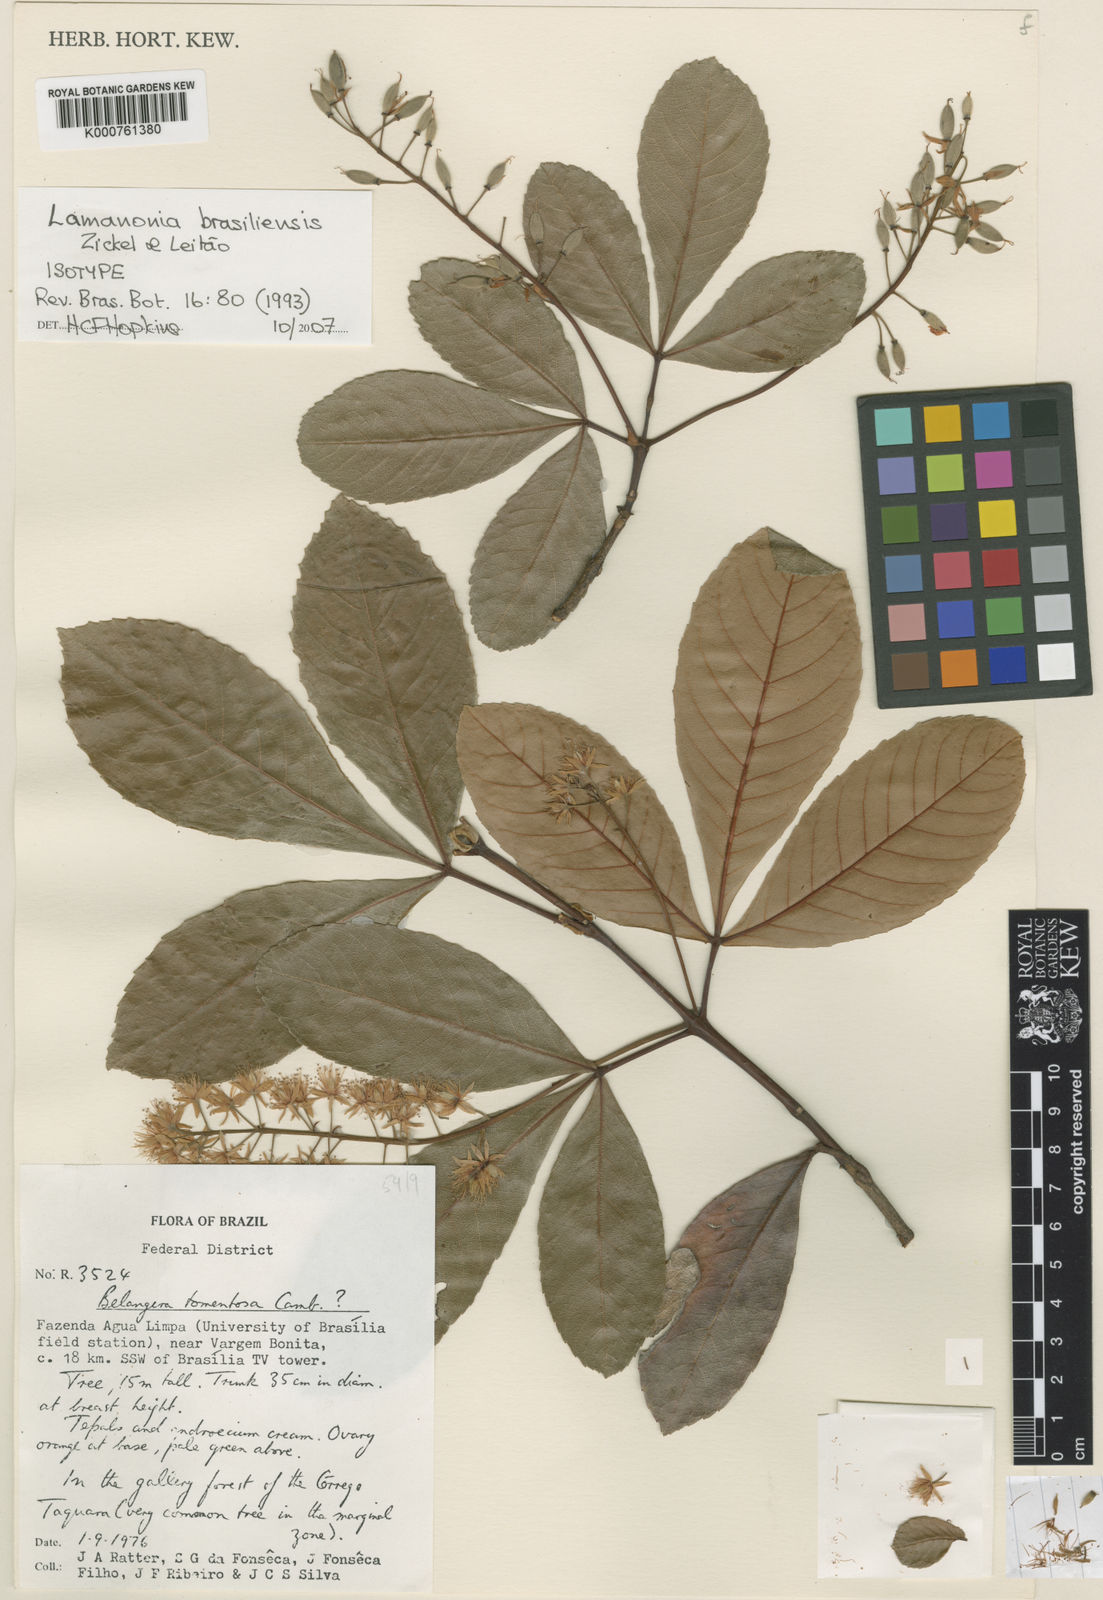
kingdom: Plantae
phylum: Tracheophyta
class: Magnoliopsida
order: Oxalidales
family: Cunoniaceae
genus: Lamanonia
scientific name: Lamanonia
